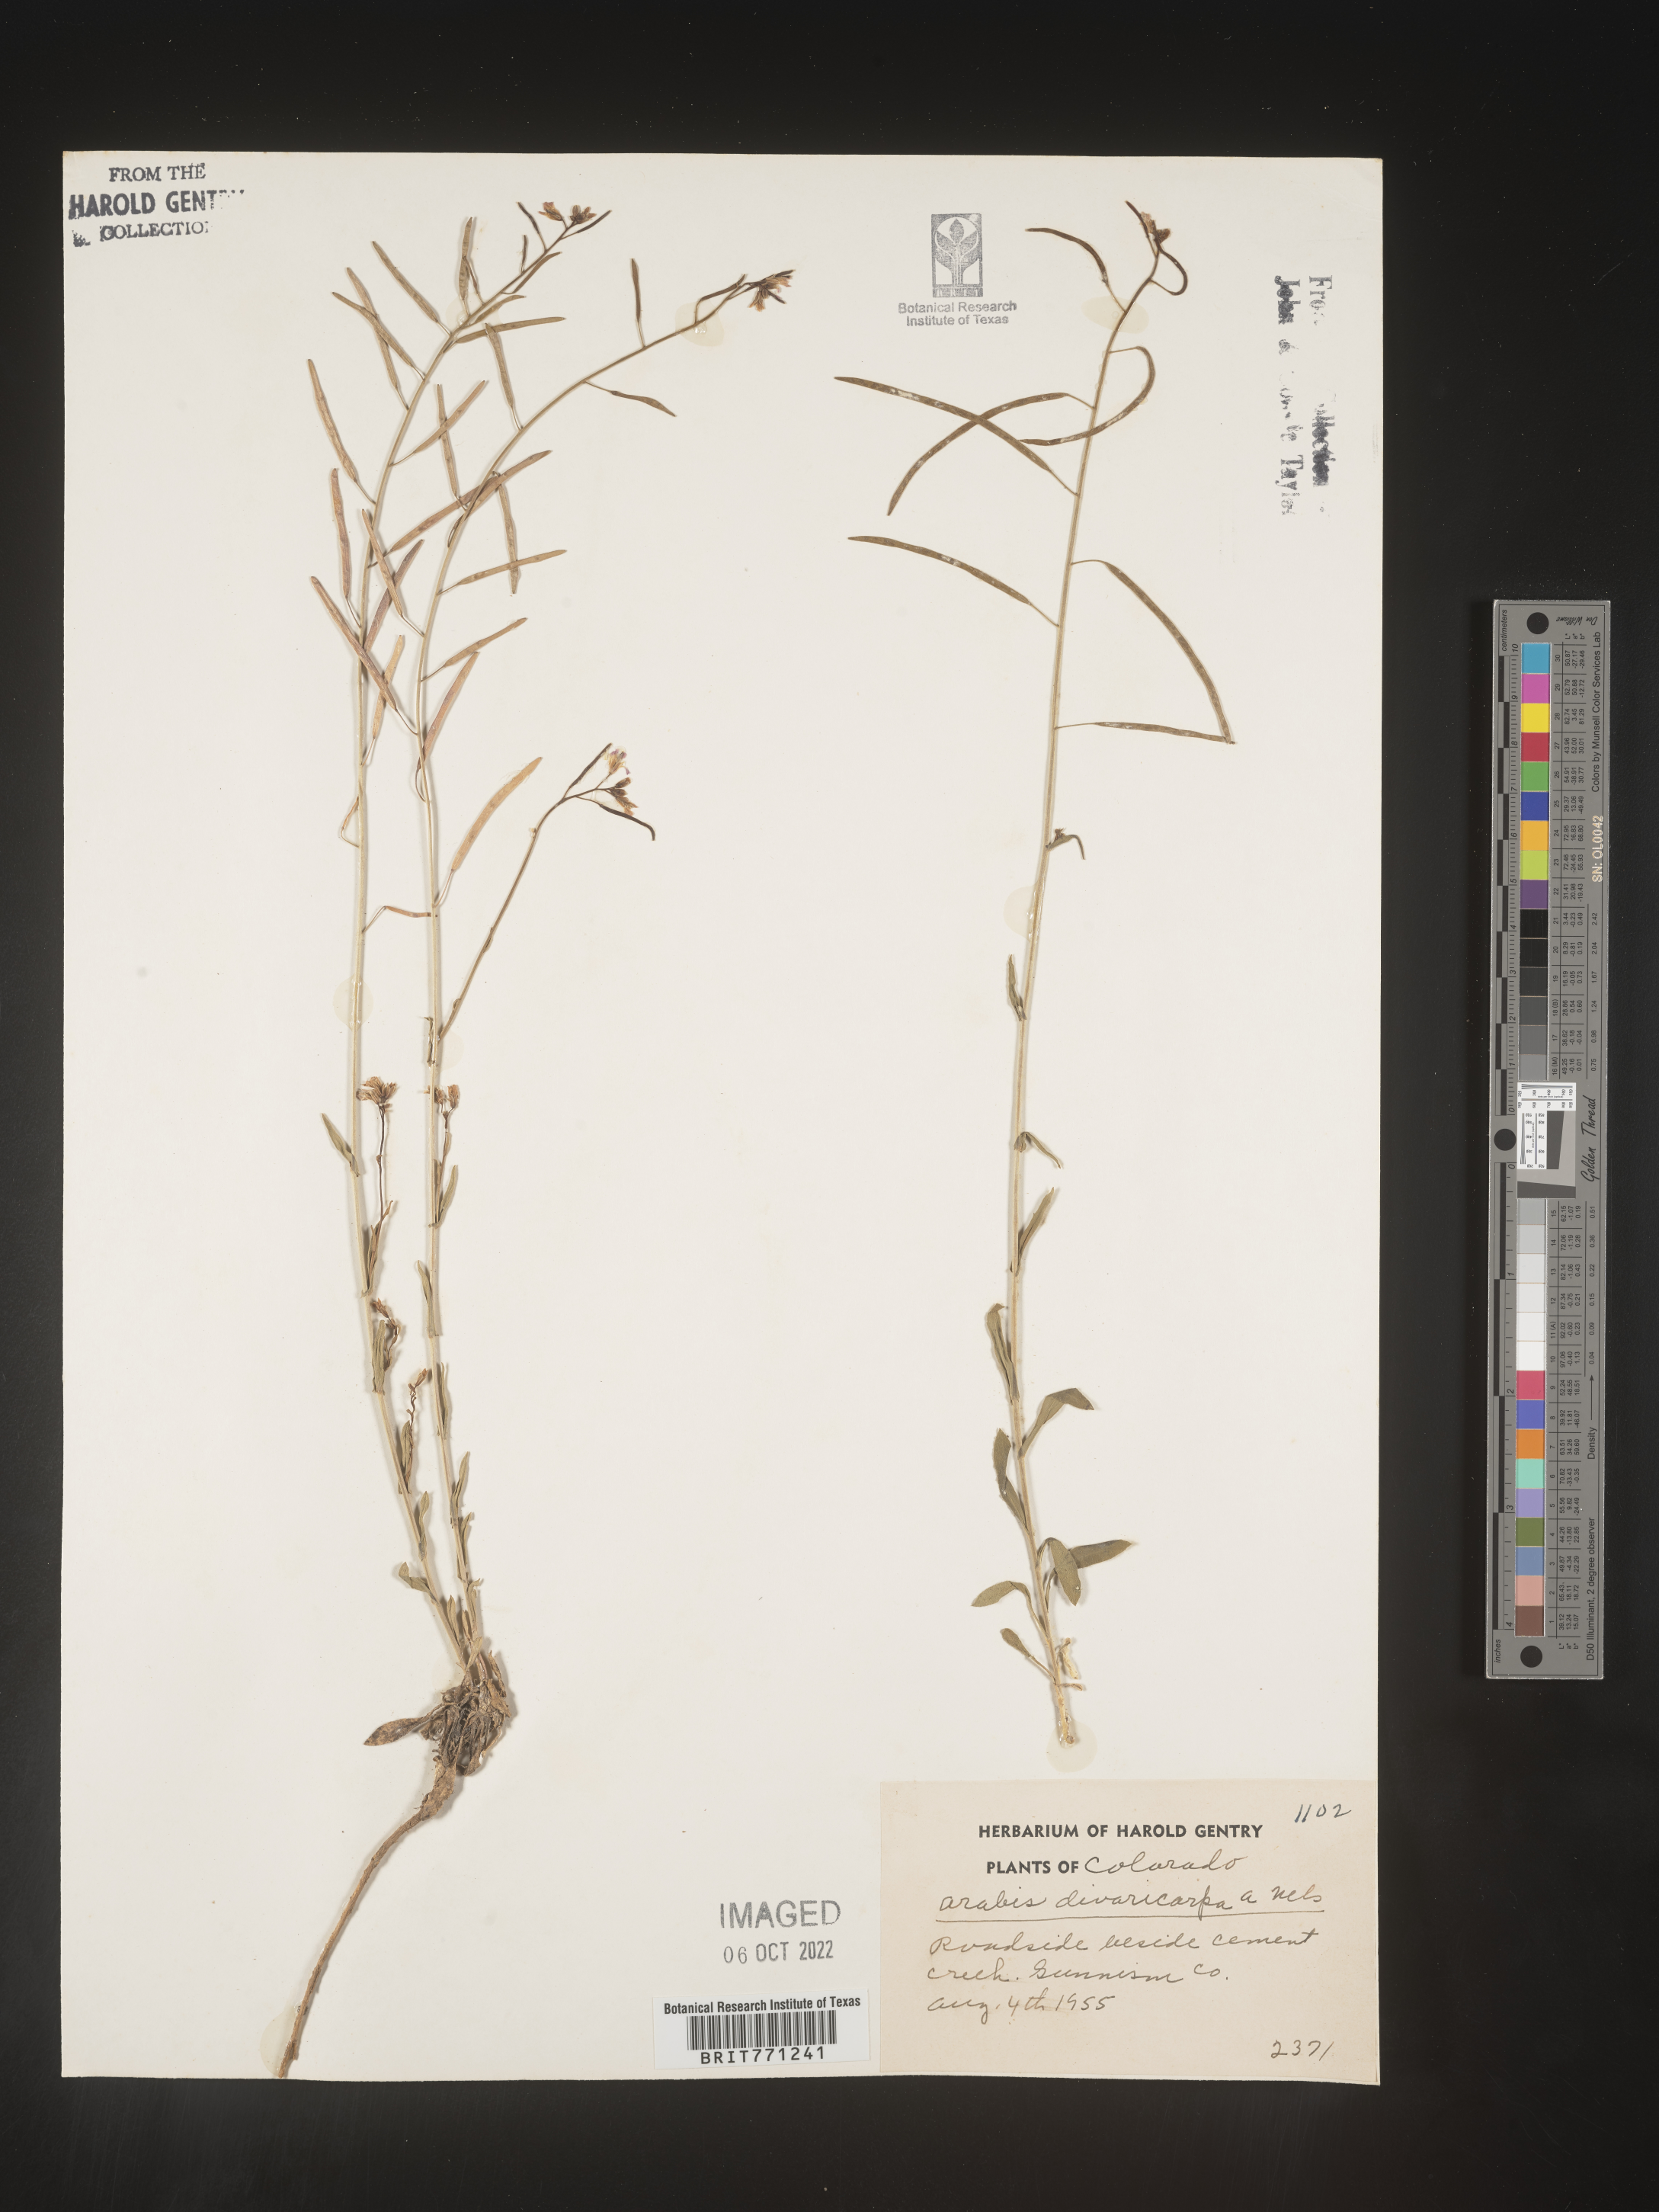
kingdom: Plantae
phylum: Tracheophyta
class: Magnoliopsida
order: Brassicales
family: Brassicaceae
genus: Boechera
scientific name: Boechera divaricarpa
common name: Divaricate rockcress
